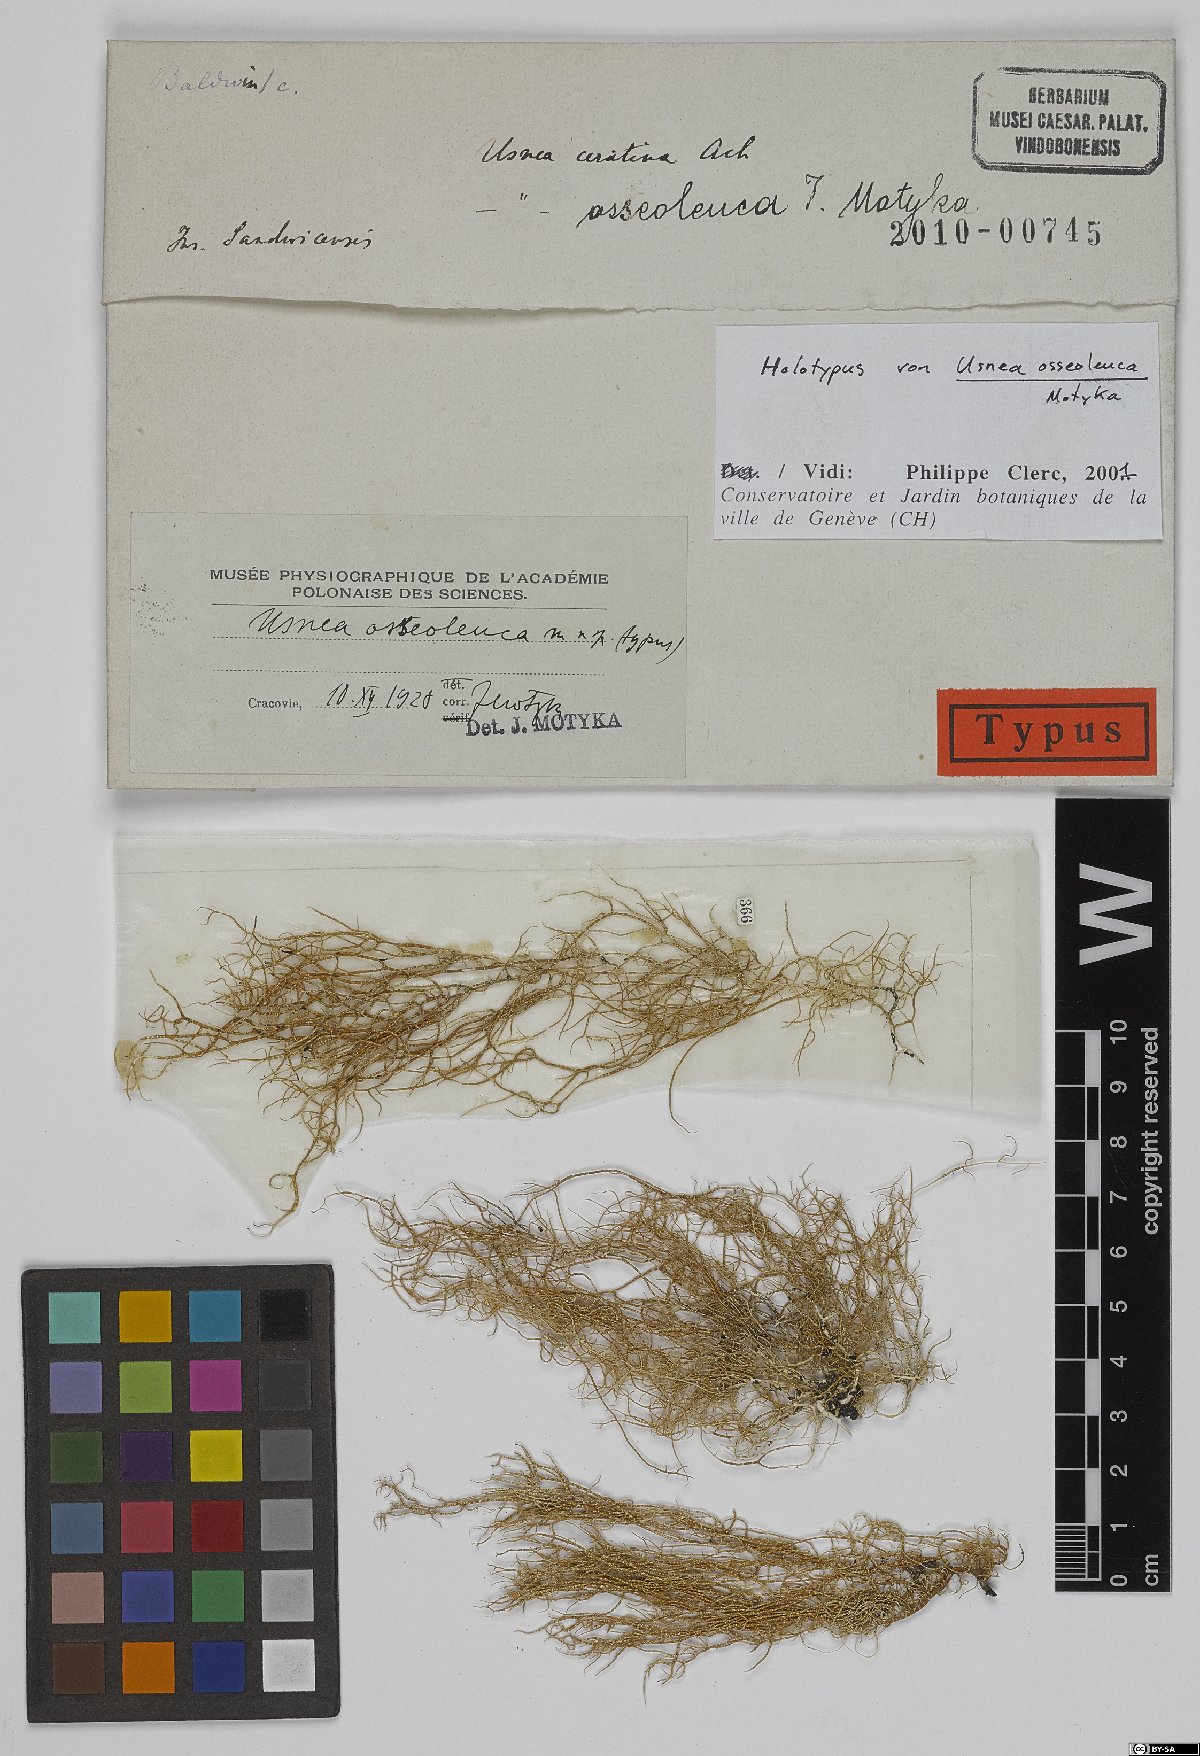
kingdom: Fungi
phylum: Ascomycota
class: Lecanoromycetes
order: Lecanorales
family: Parmeliaceae
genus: Usnea
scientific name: Usnea
